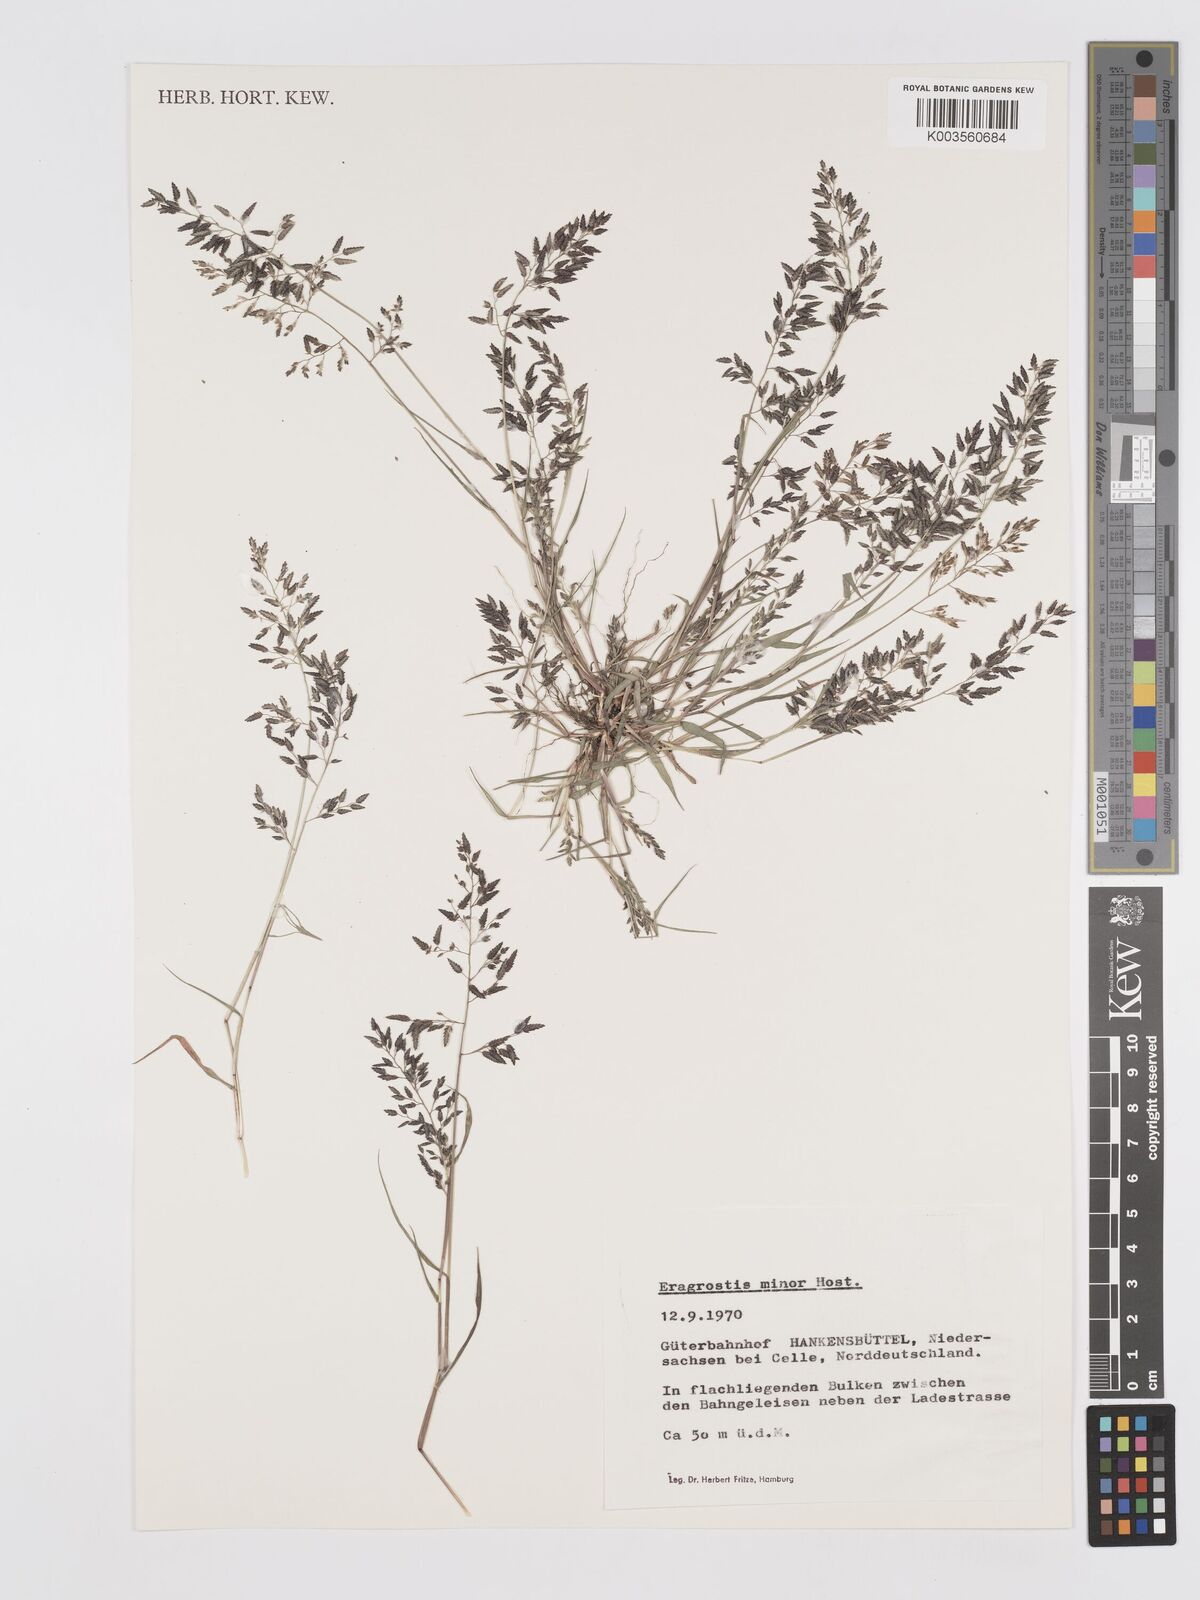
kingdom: Plantae
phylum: Tracheophyta
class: Liliopsida
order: Poales
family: Poaceae
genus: Eragrostis
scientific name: Eragrostis minor
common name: Small love-grass
